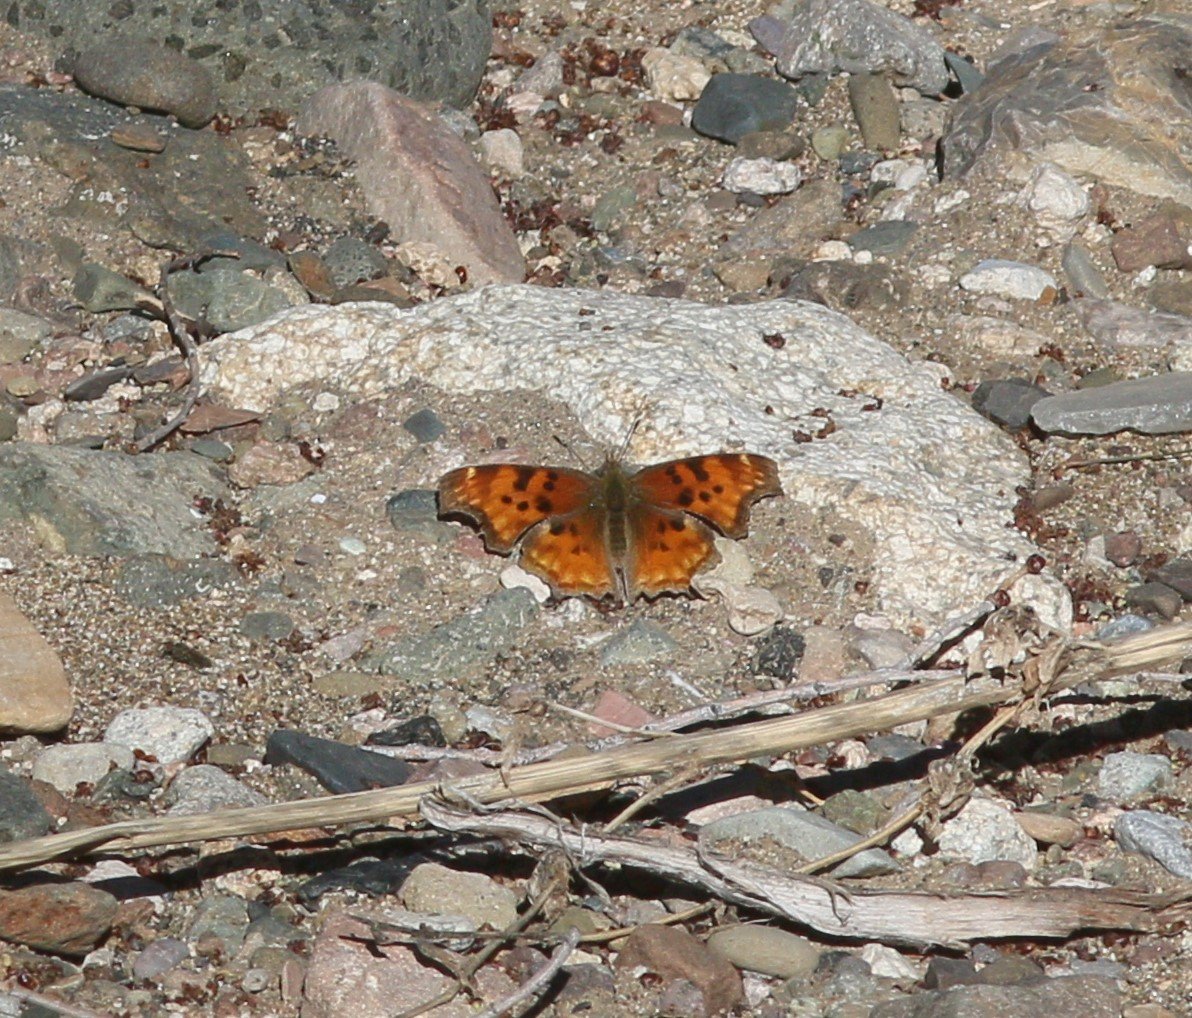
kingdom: Animalia
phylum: Arthropoda
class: Insecta
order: Lepidoptera
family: Nymphalidae
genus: Polygonia
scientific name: Polygonia satyrus
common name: Satyr Comma
